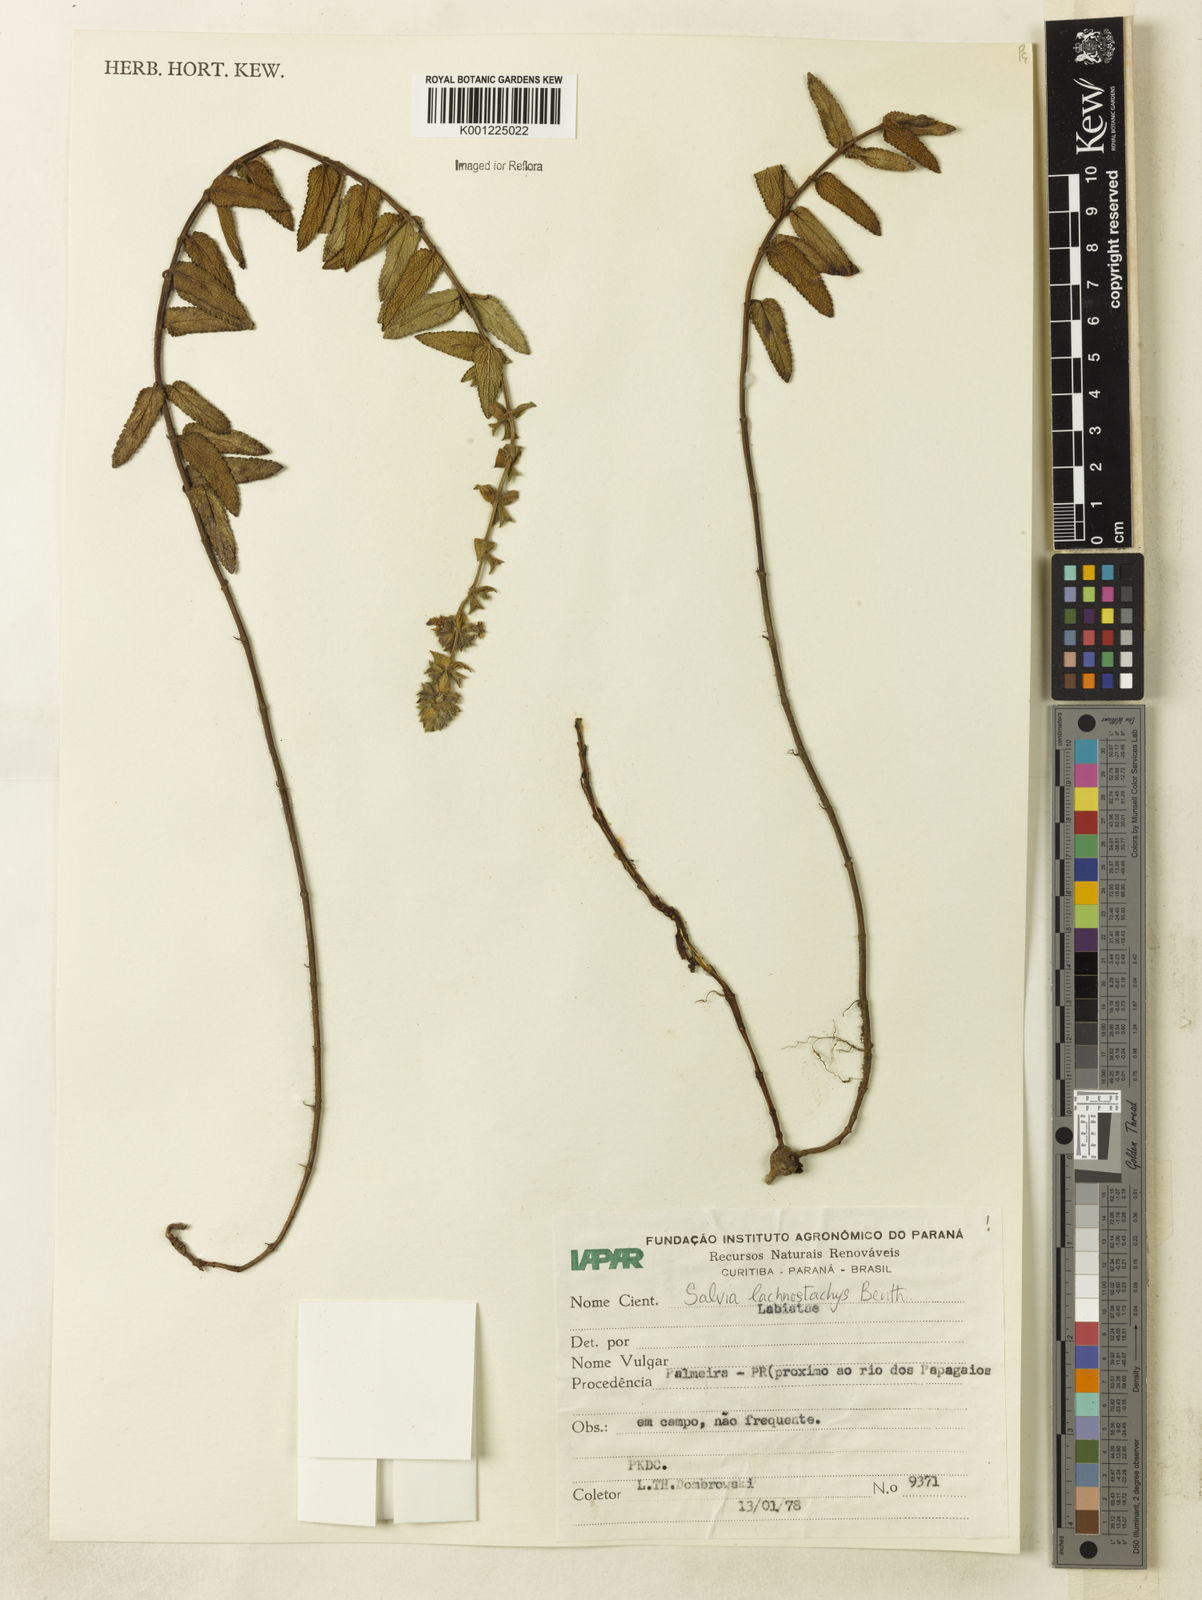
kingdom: Plantae
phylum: Tracheophyta
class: Magnoliopsida
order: Lamiales
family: Lamiaceae
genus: Salvia
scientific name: Salvia lachnostachys
